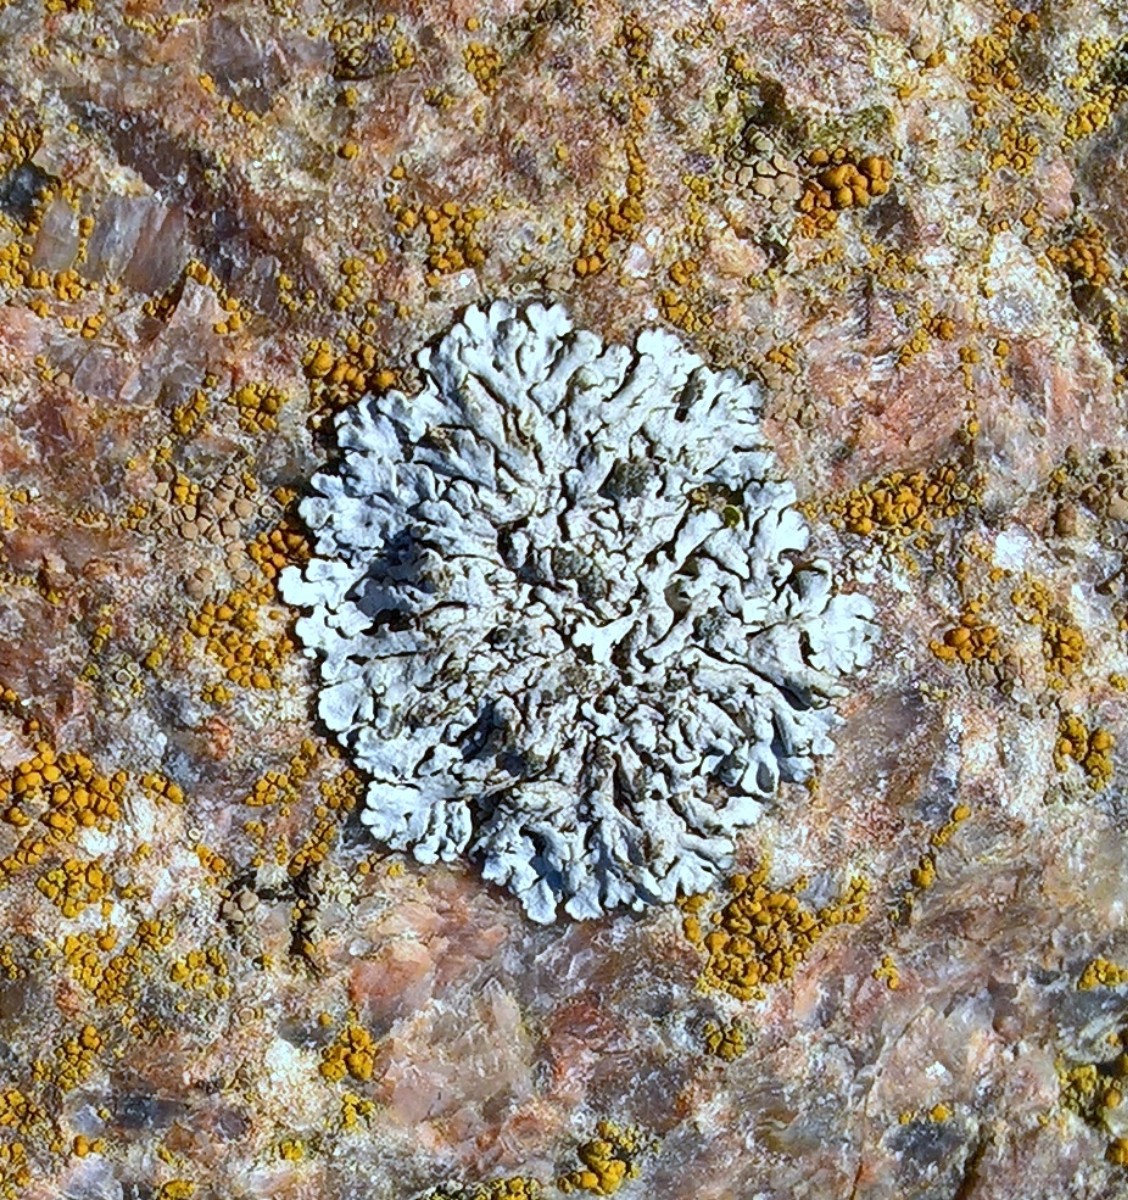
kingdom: Fungi
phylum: Ascomycota
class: Lecanoromycetes
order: Caliciales
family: Physciaceae
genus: Physcia
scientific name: Physcia caesia
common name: blågrå rosetlav
